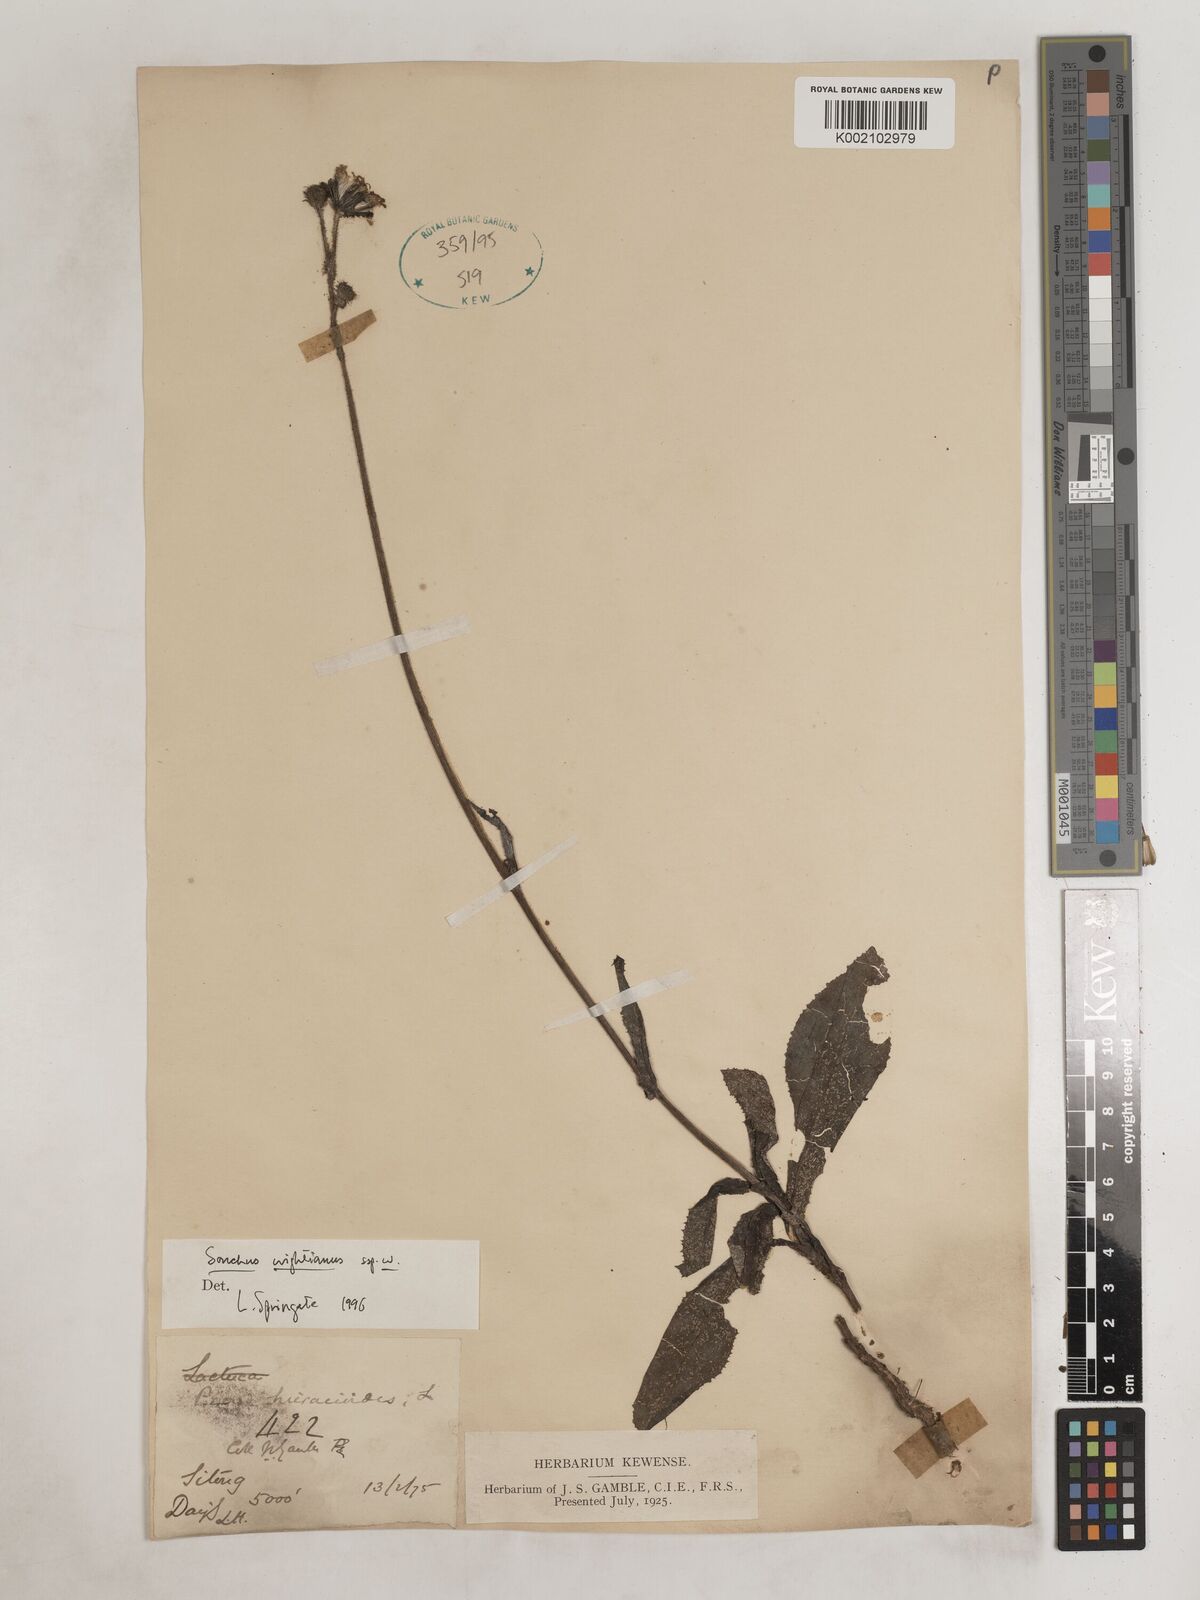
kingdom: Plantae
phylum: Tracheophyta
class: Magnoliopsida
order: Asterales
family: Asteraceae
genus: Sonchus
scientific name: Sonchus wightianus
